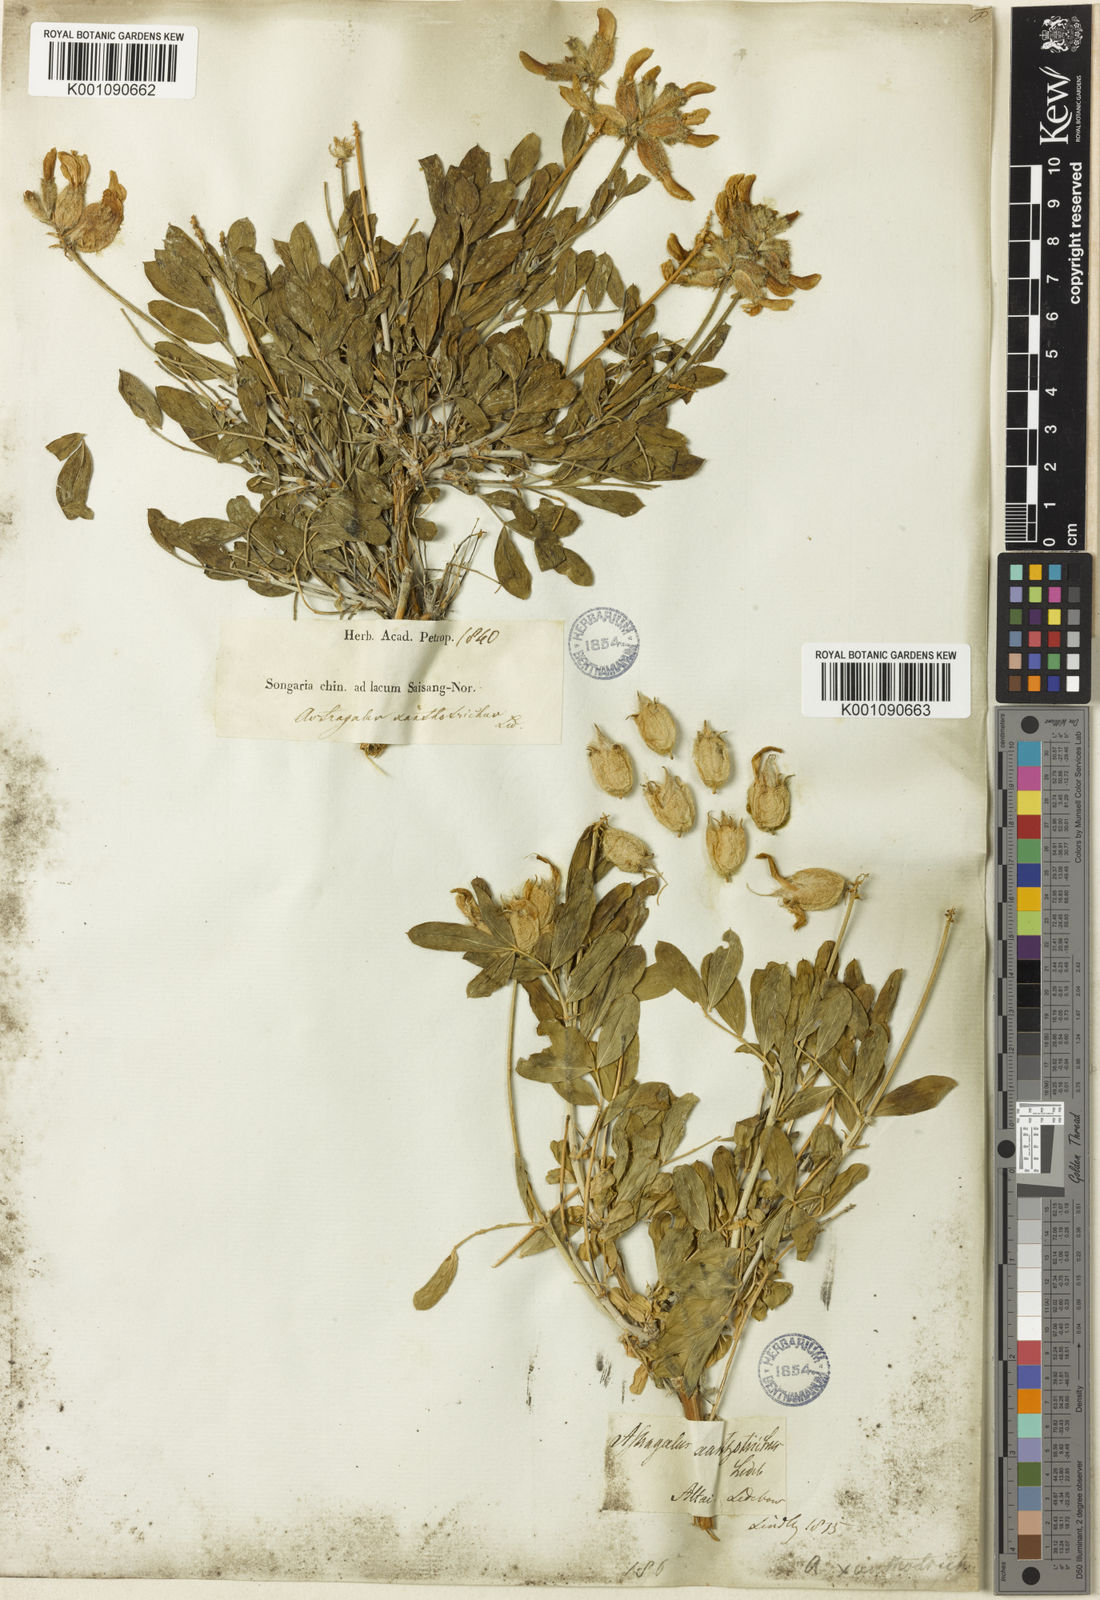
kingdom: Plantae
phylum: Tracheophyta
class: Magnoliopsida
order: Fabales
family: Fabaceae
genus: Astragalus
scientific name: Astragalus
